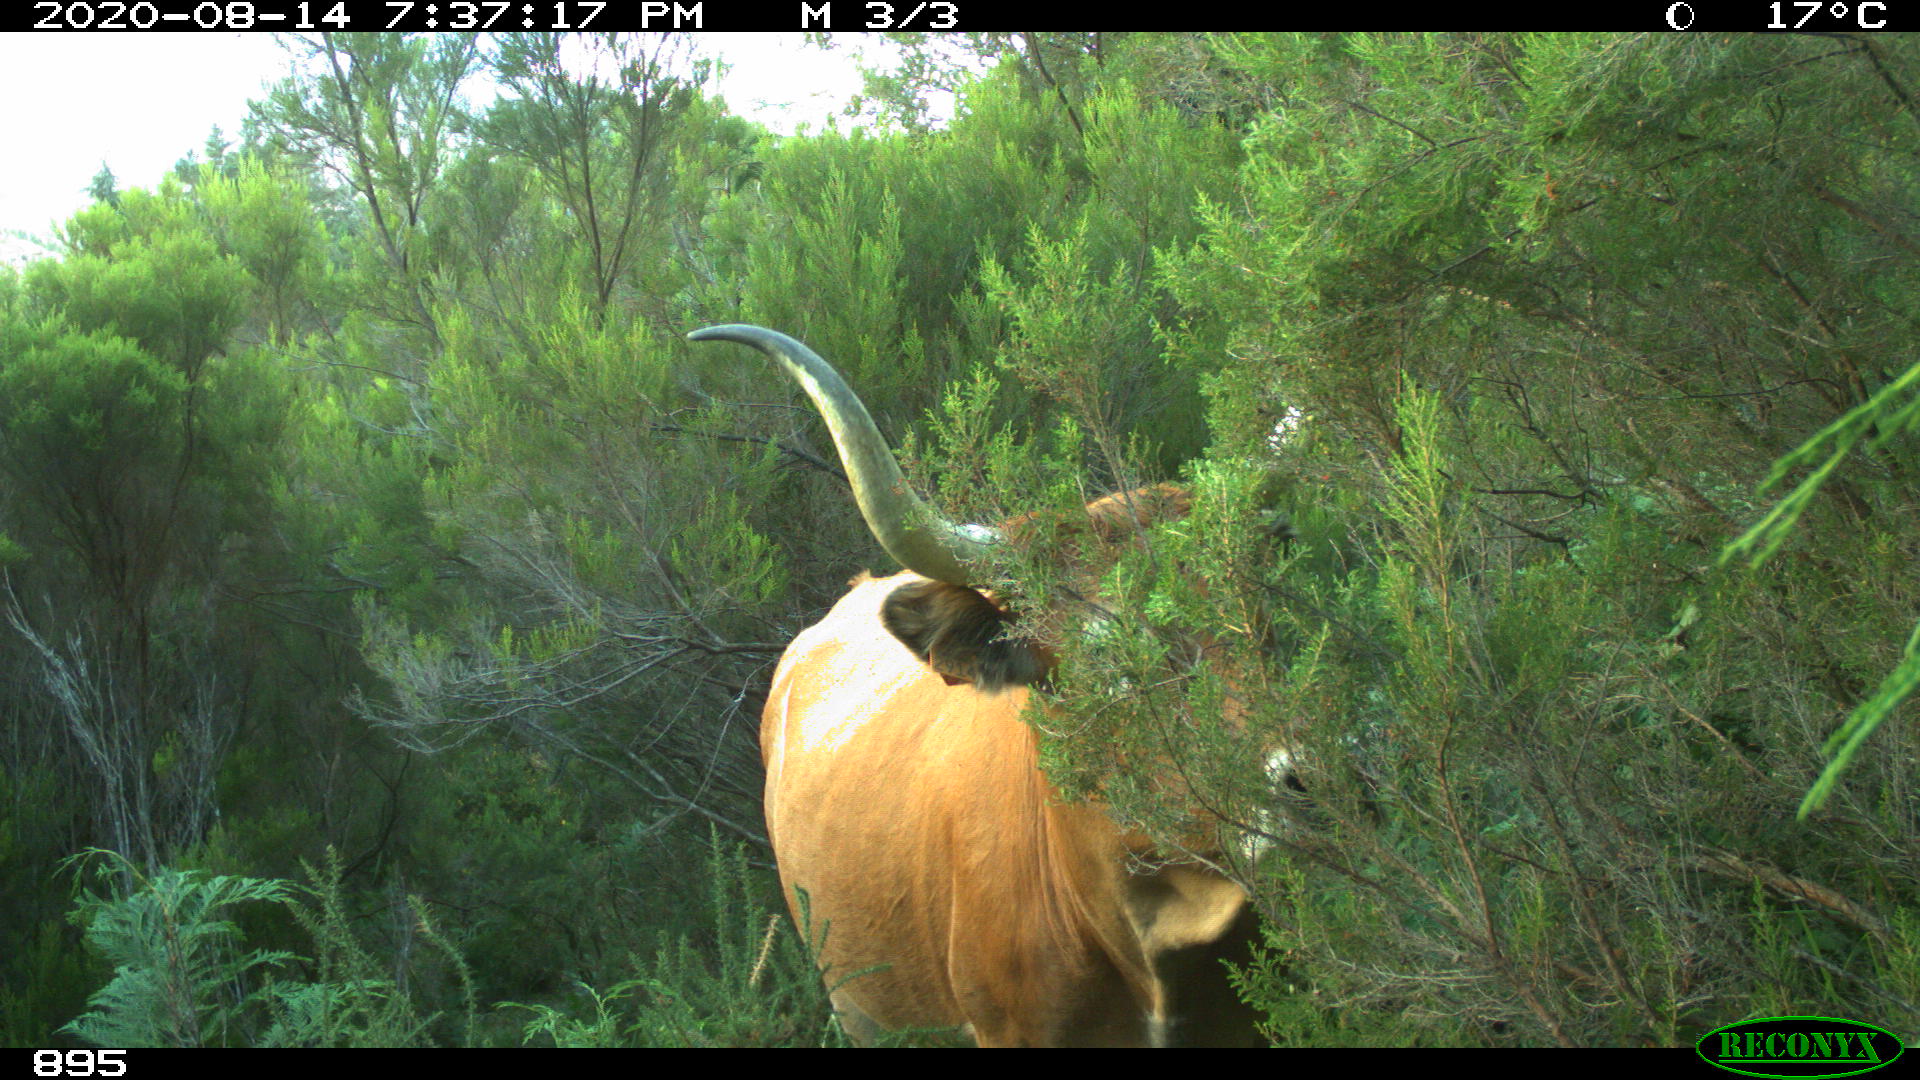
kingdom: Animalia
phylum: Chordata
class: Mammalia
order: Artiodactyla
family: Bovidae
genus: Bos
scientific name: Bos taurus
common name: Domesticated cattle
